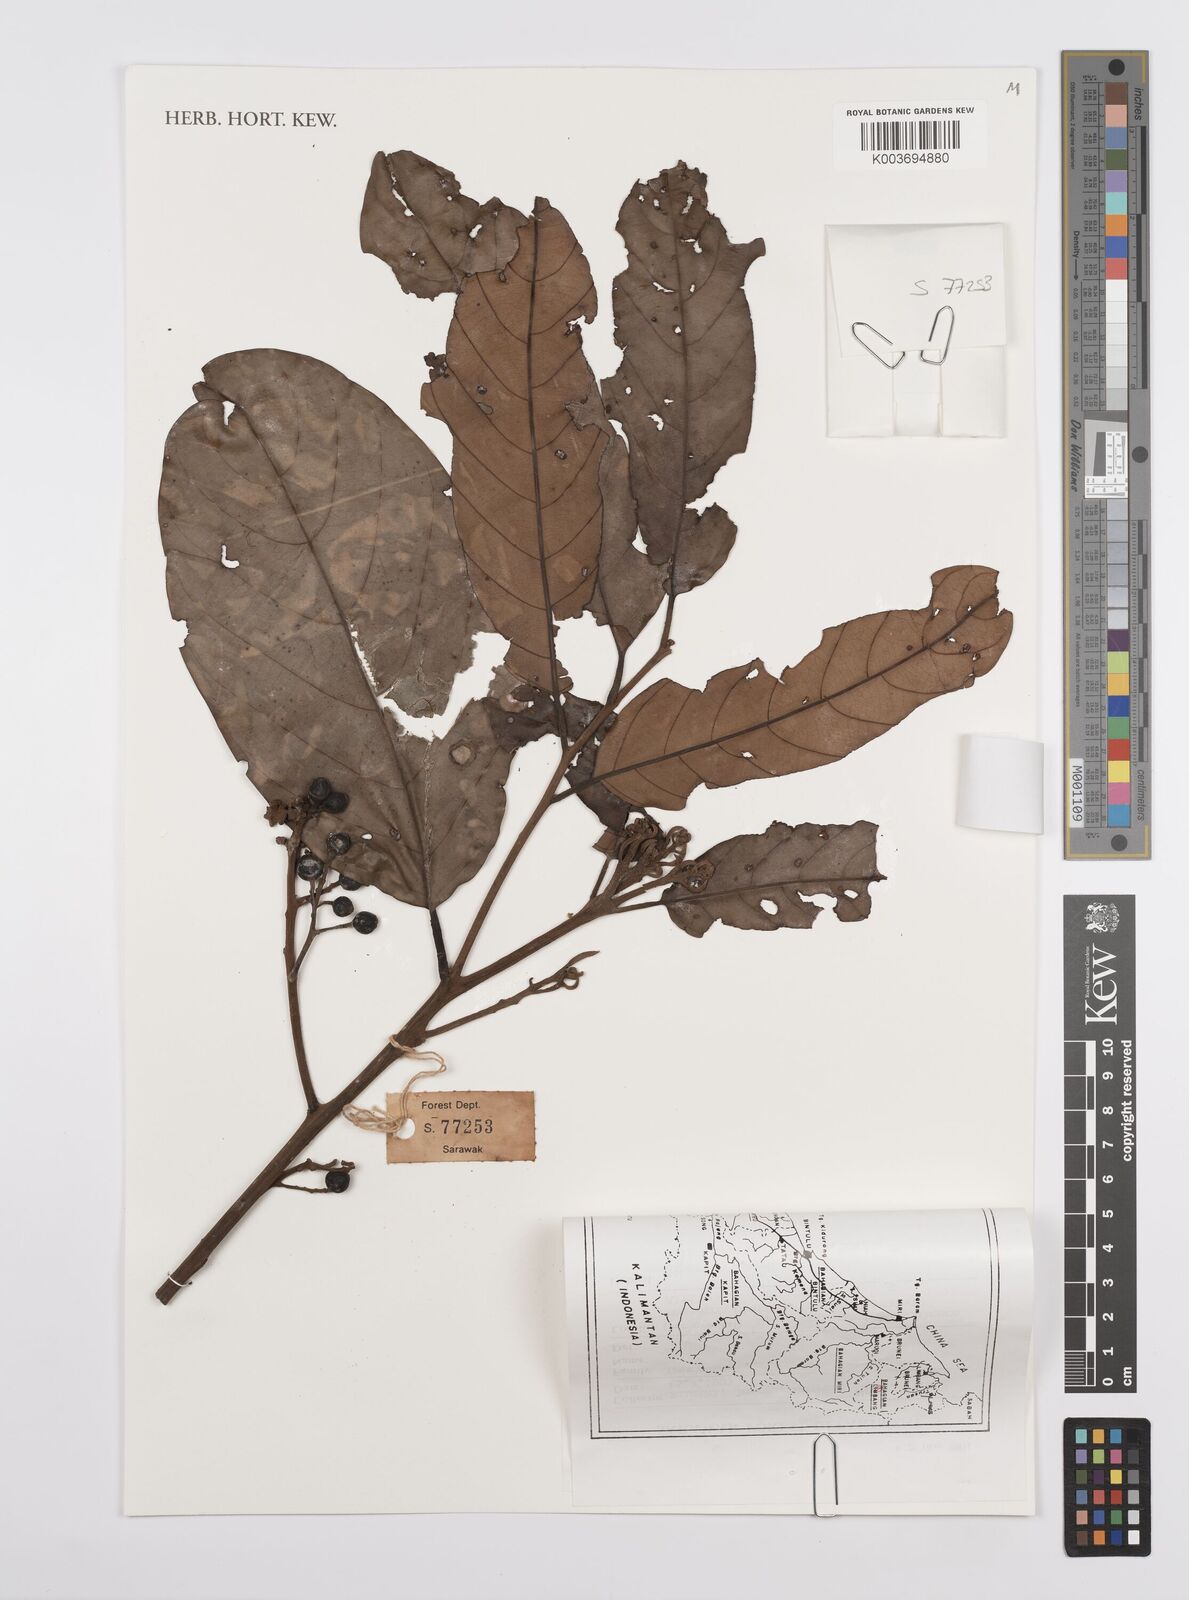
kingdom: Plantae
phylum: Tracheophyta
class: Magnoliopsida
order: Laurales
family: Lauraceae
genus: Cryptocarya
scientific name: Cryptocarya
